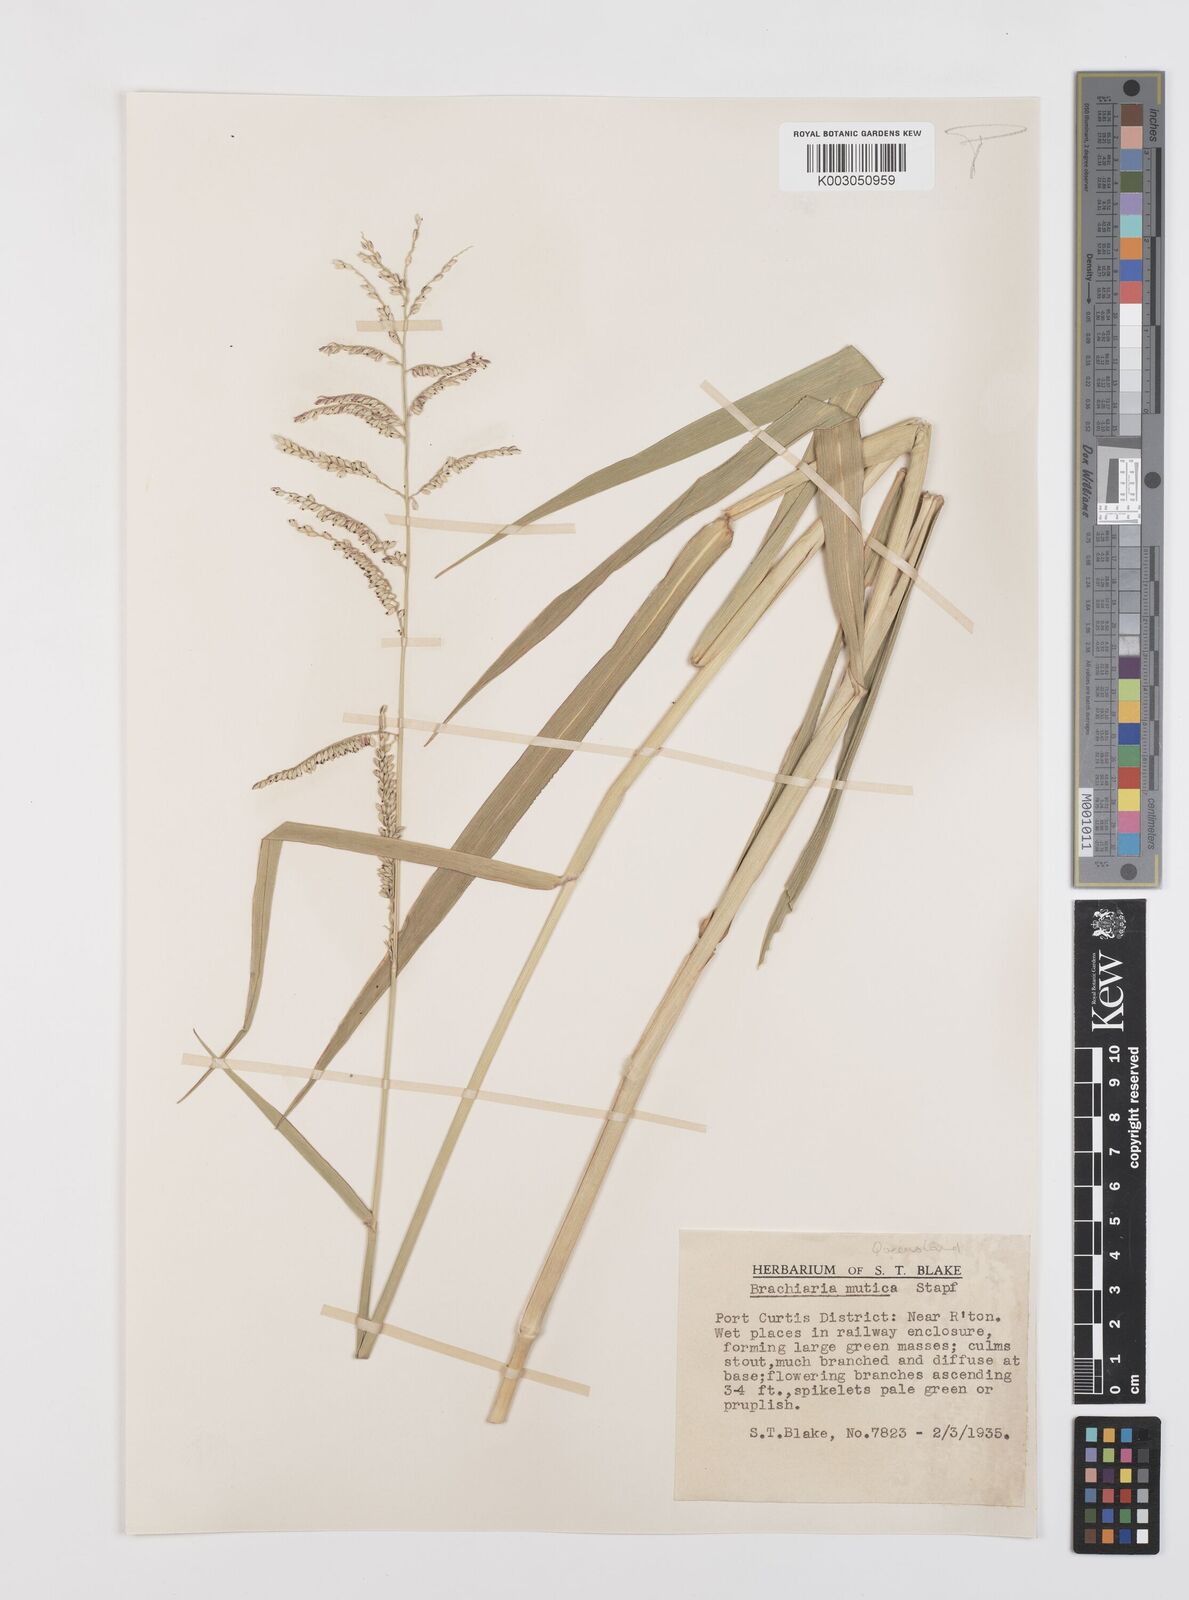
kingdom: Plantae
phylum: Tracheophyta
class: Liliopsida
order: Poales
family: Poaceae
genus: Urochloa
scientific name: Urochloa mutica
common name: Para grass
